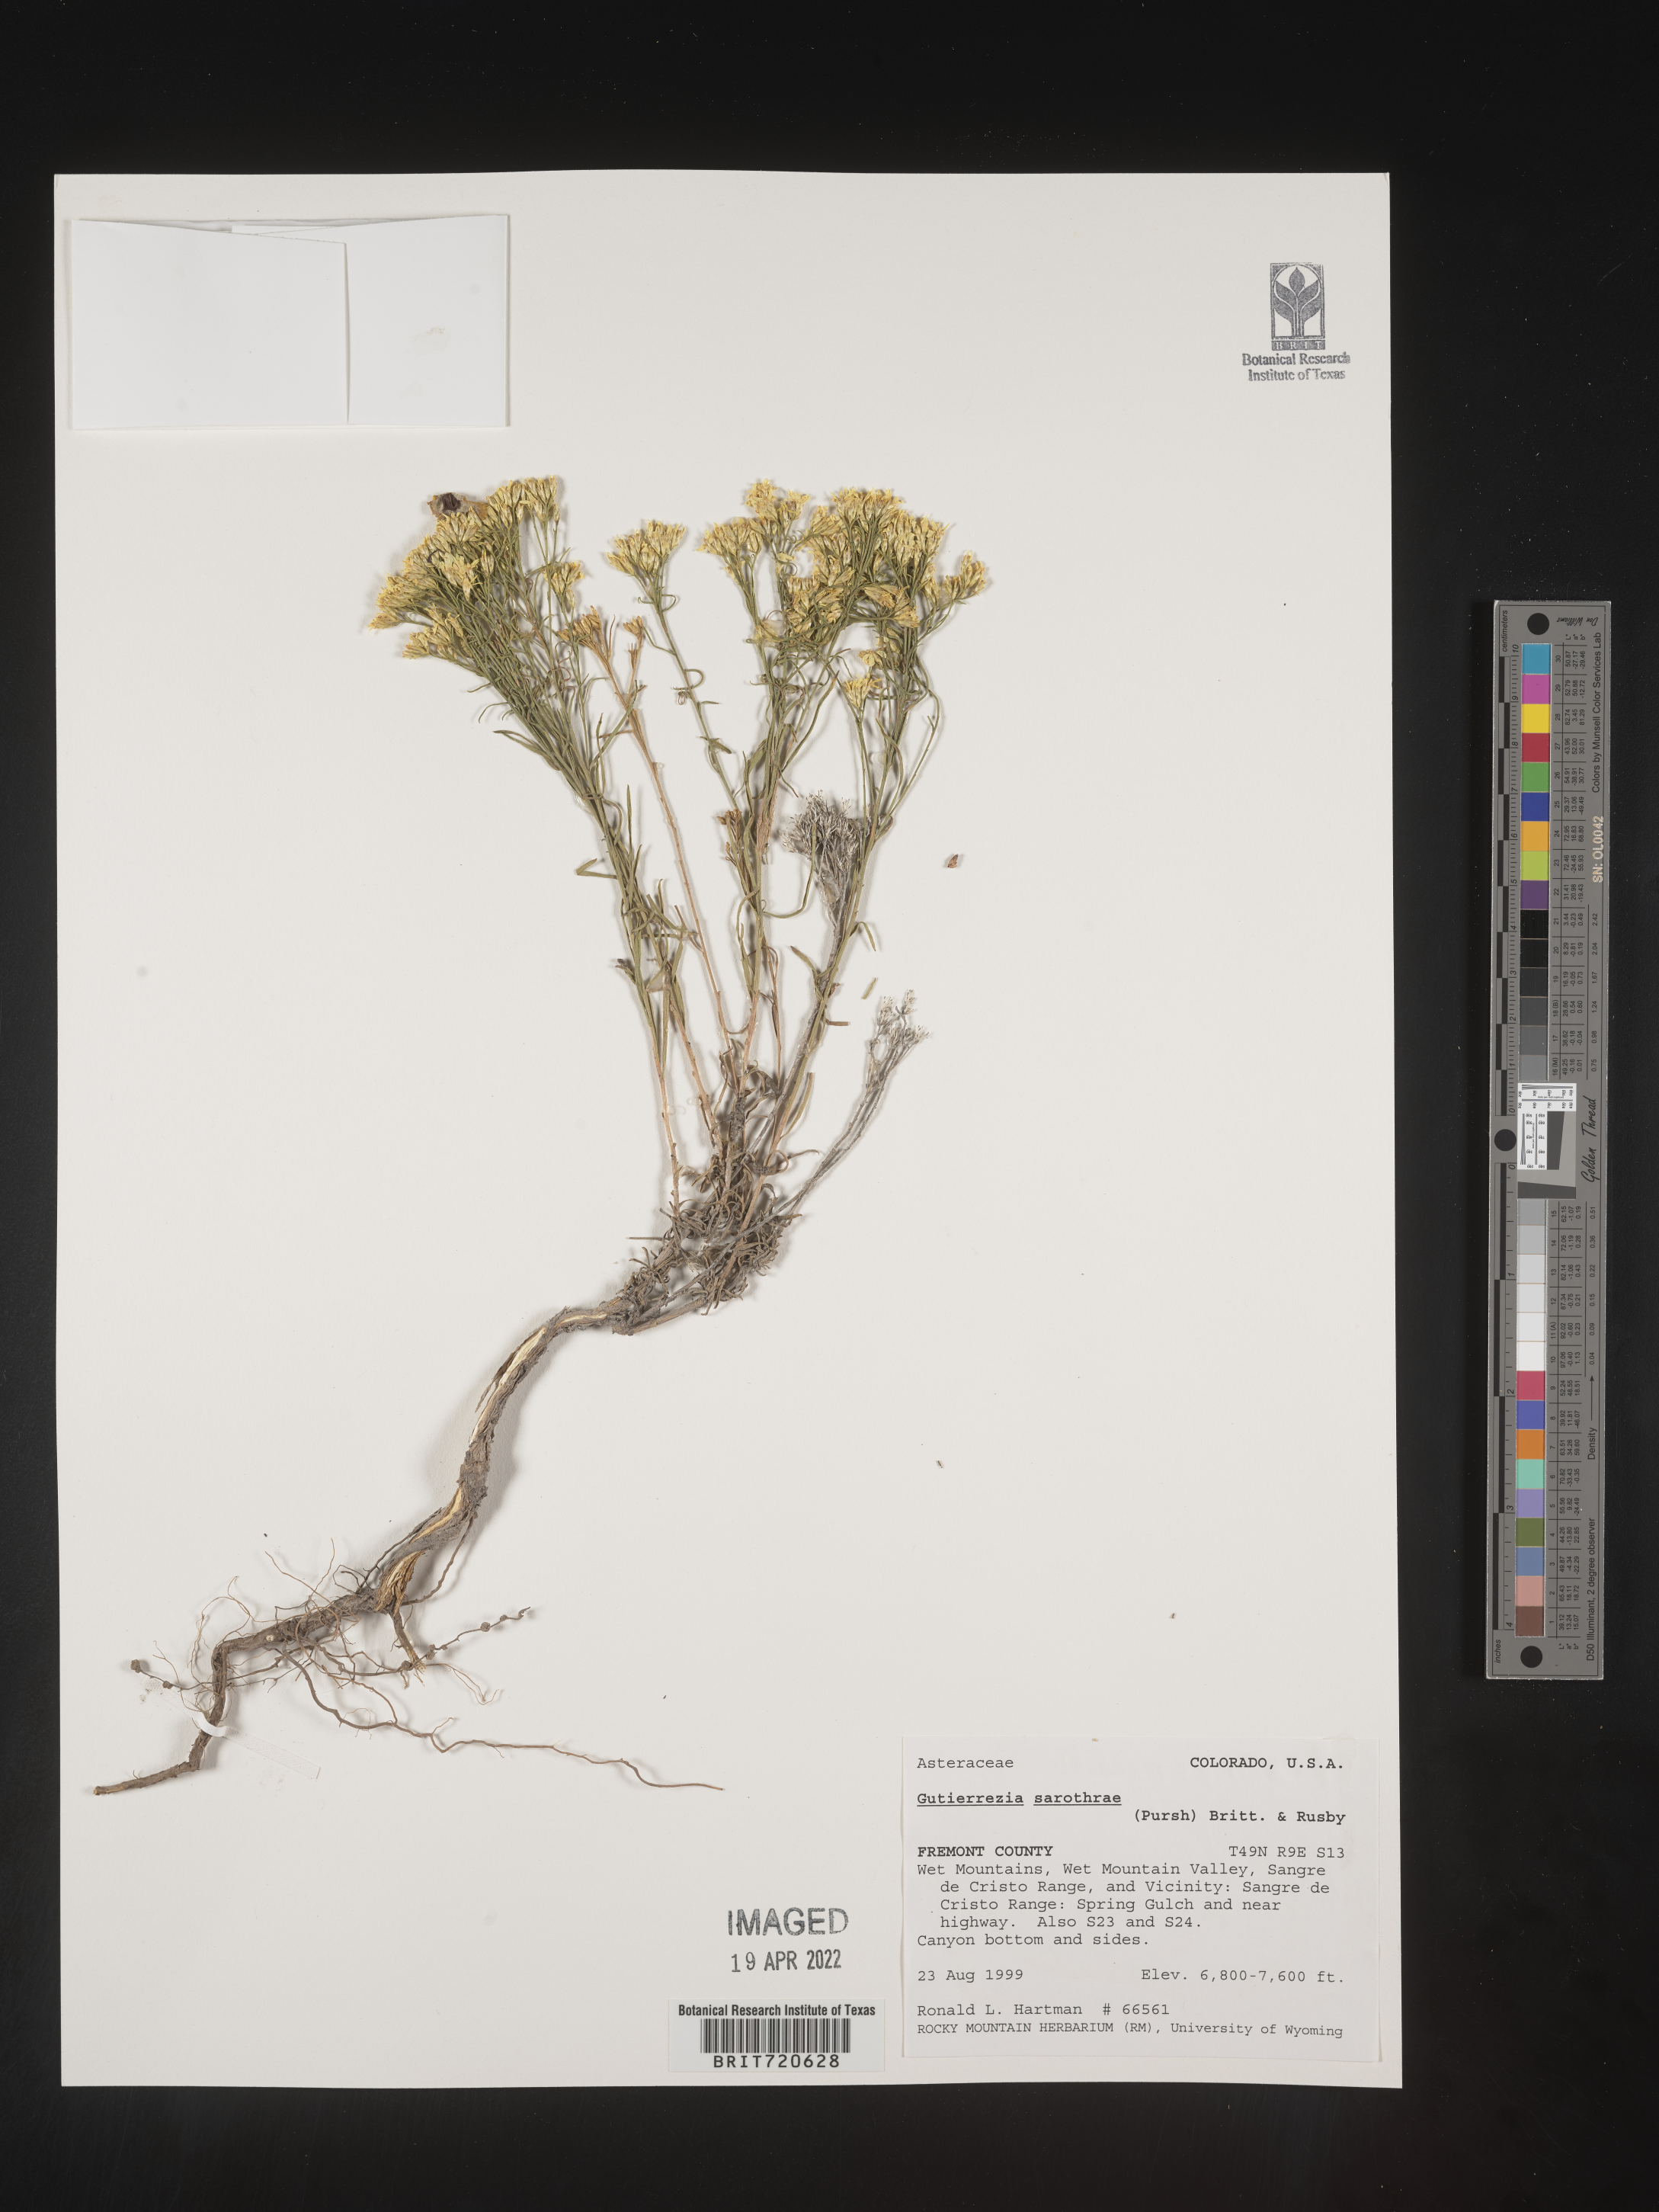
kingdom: Plantae
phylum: Tracheophyta
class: Magnoliopsida
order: Asterales
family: Asteraceae
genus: Gutierrezia
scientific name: Gutierrezia sarothrae
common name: Broom snakeweed
